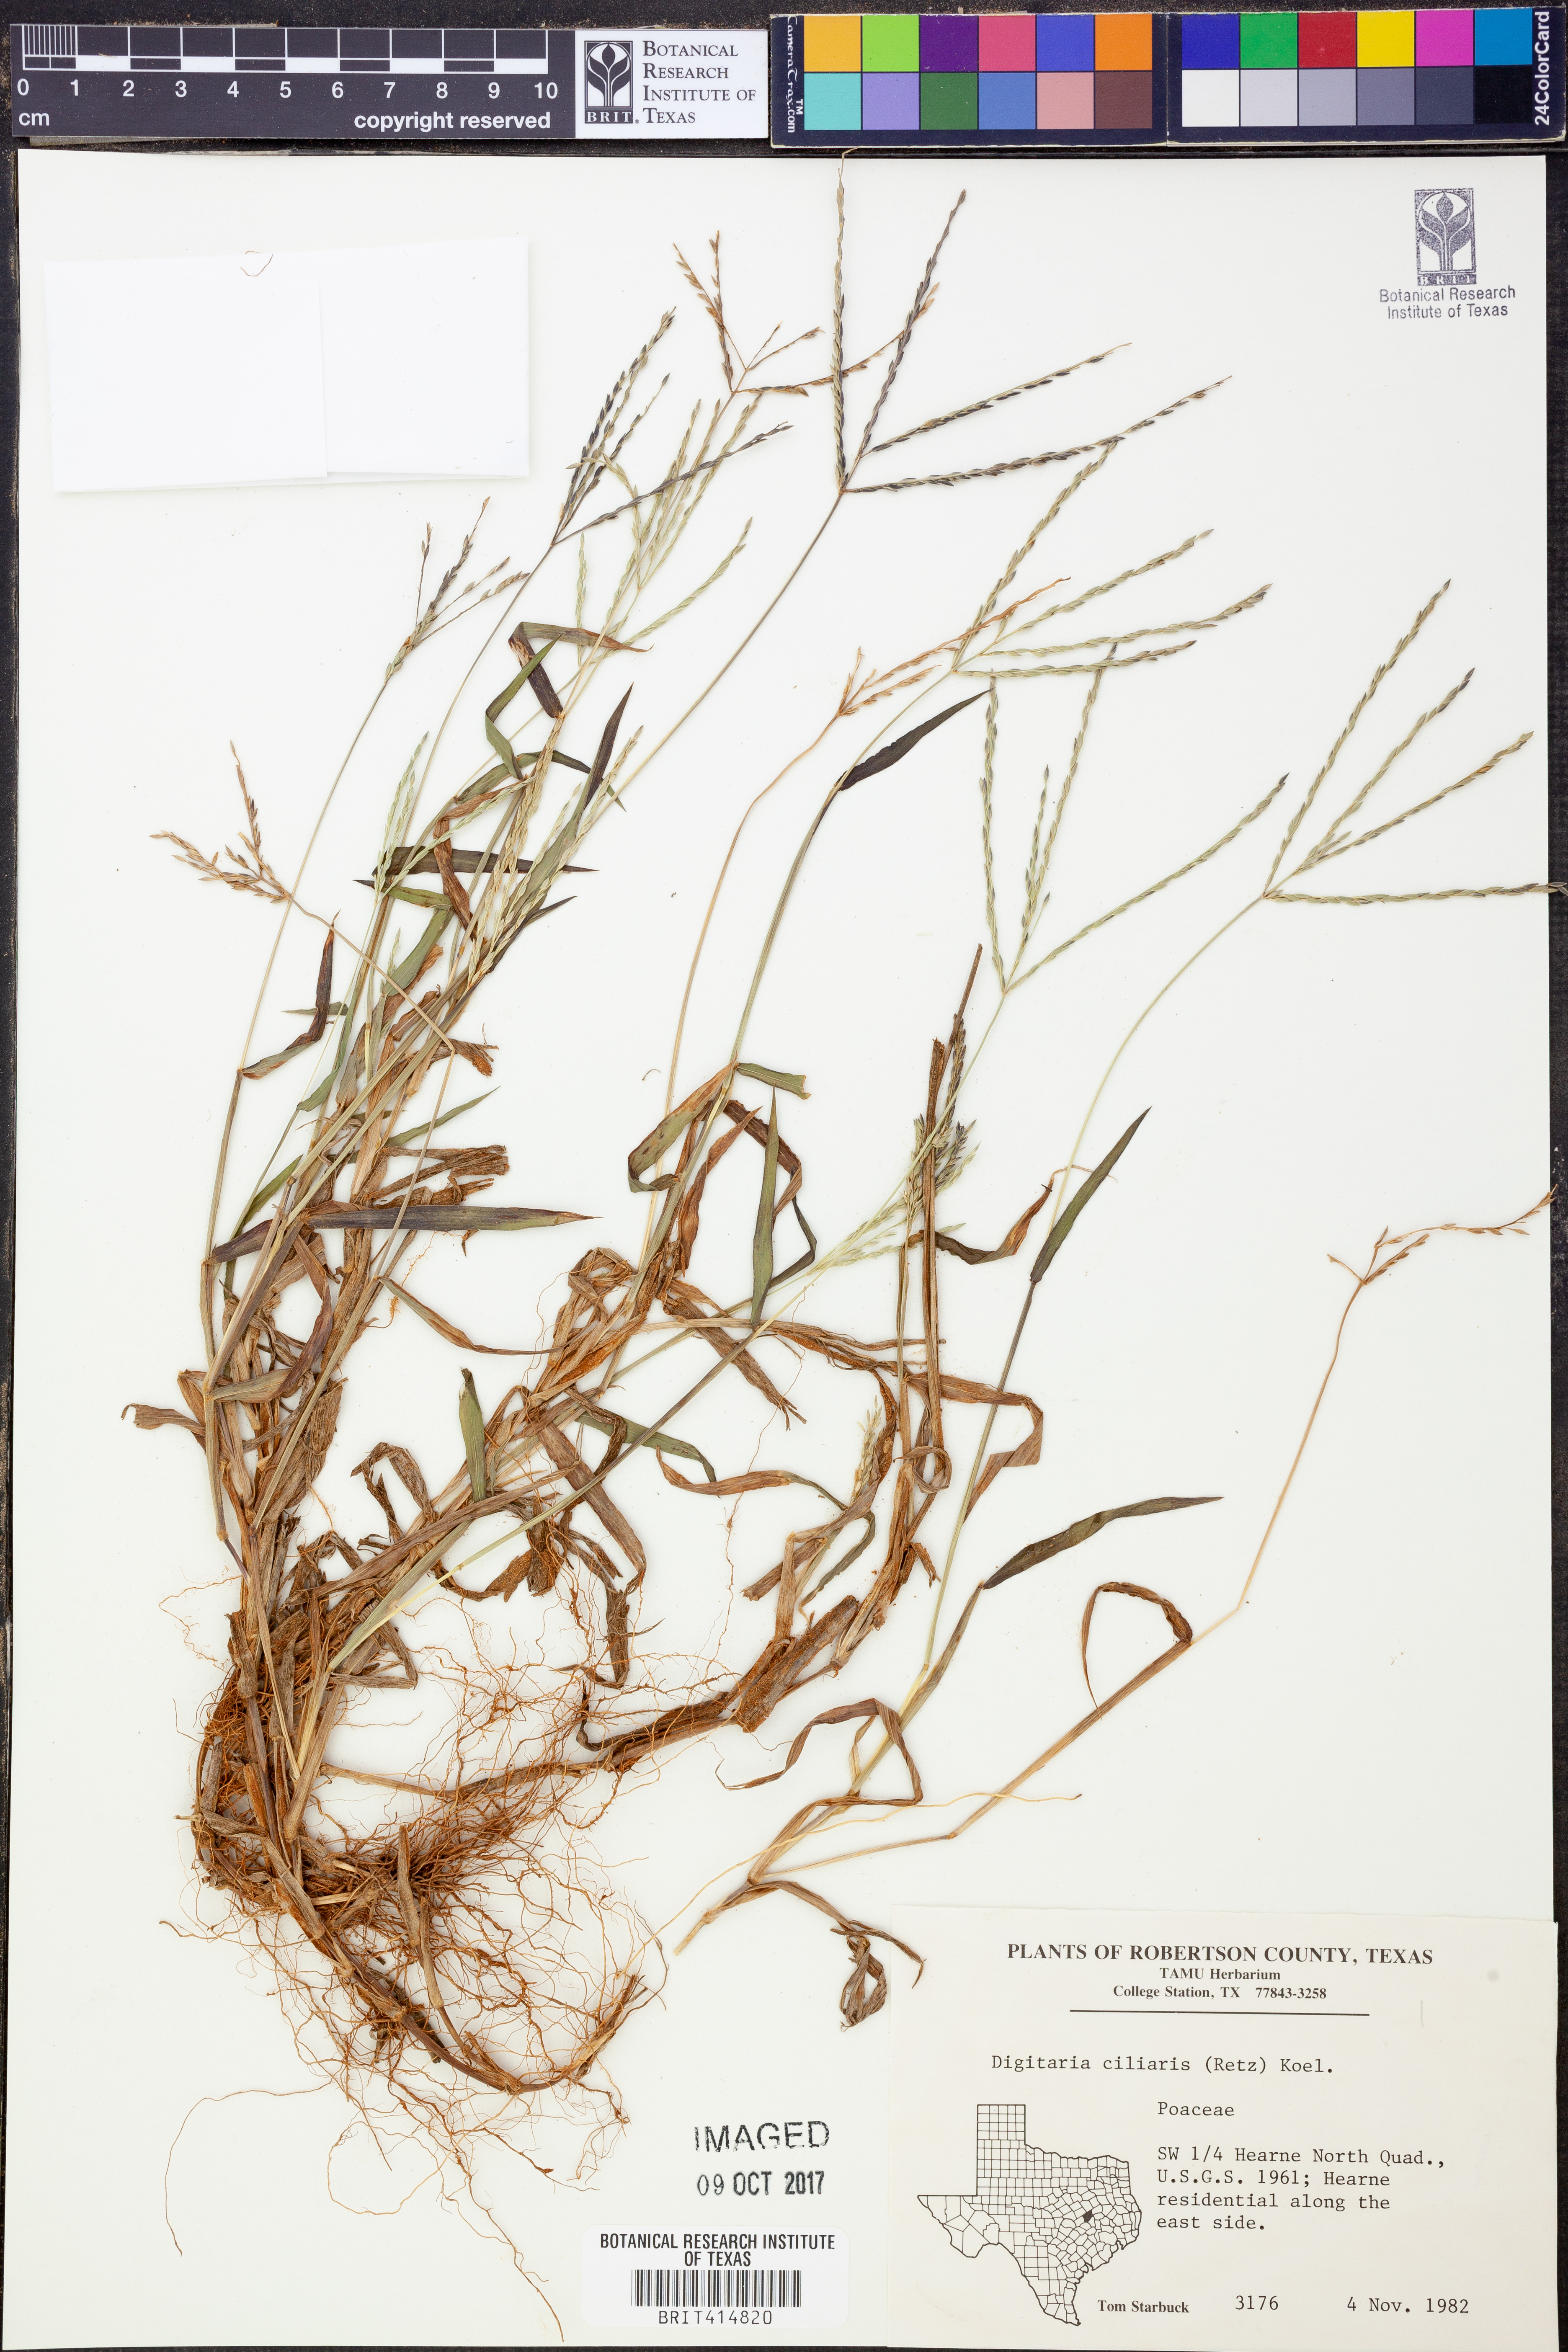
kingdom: Plantae
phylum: Tracheophyta
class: Liliopsida
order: Poales
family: Poaceae
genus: Digitaria
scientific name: Digitaria ciliaris
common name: Tropical finger-grass
